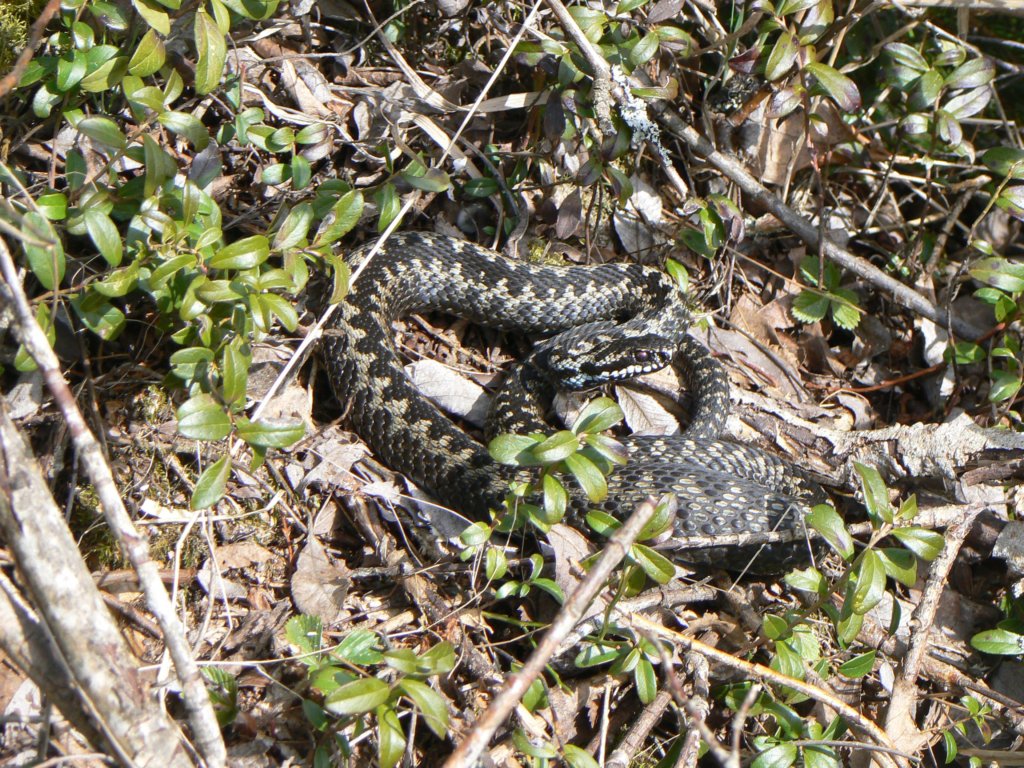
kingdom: Animalia
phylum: Chordata
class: Squamata
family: Viperidae
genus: Vipera
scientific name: Vipera berus
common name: Adder
